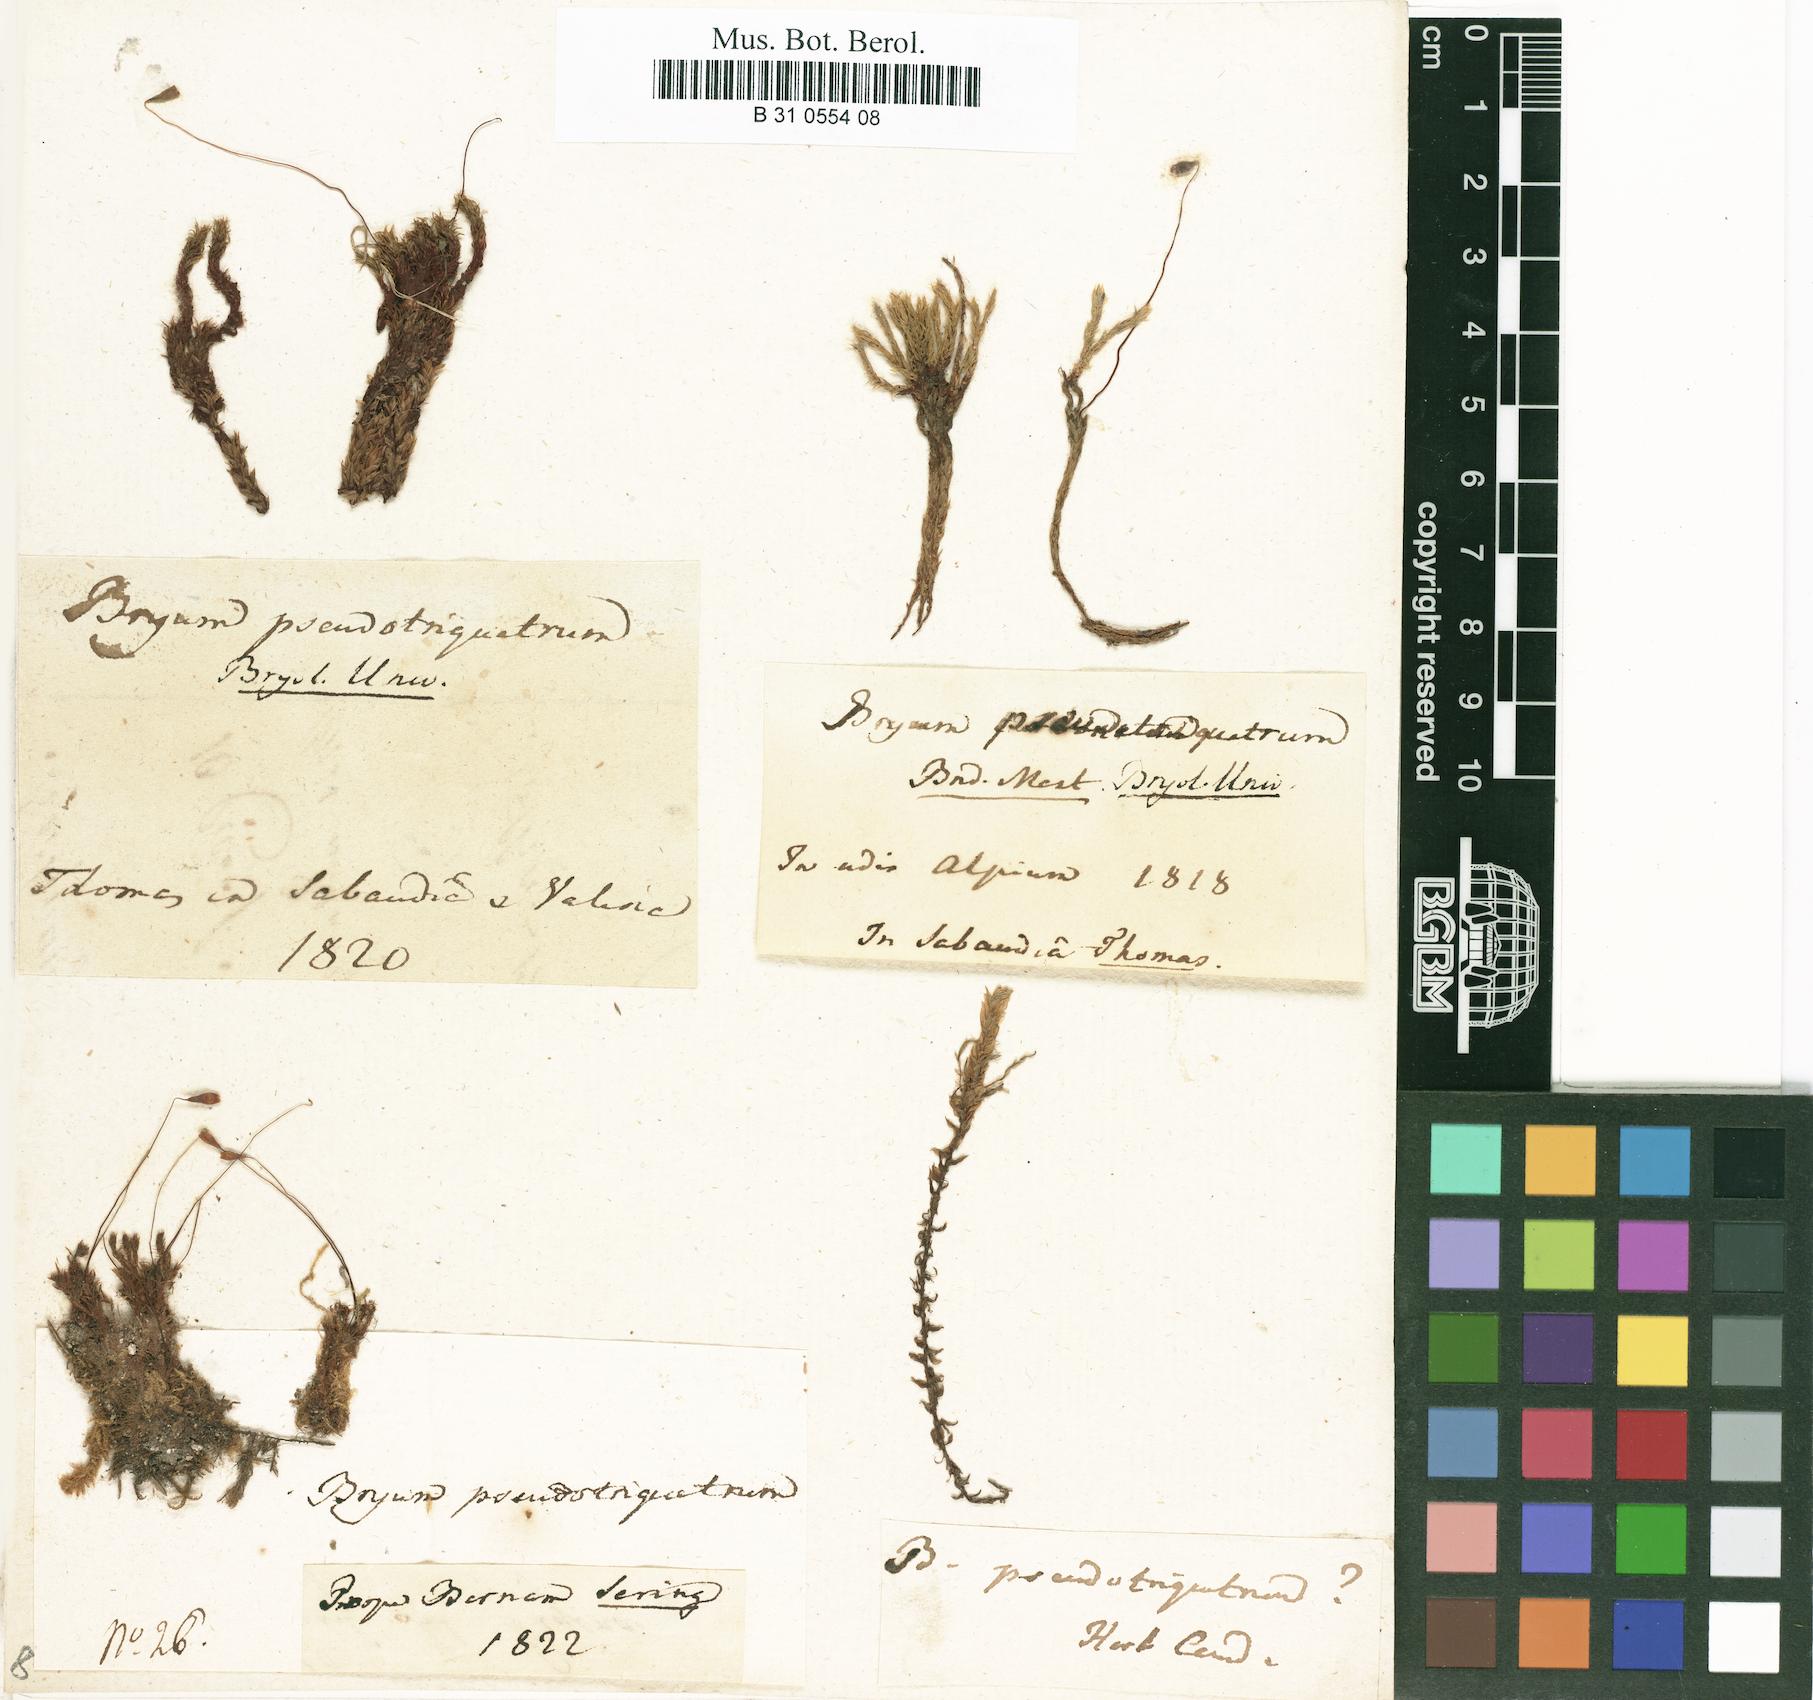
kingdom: Plantae
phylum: Bryophyta
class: Bryopsida
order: Bryales
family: Bryaceae
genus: Ptychostomum
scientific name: Ptychostomum pseudotriquetrum
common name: Long-leaved thread moss
